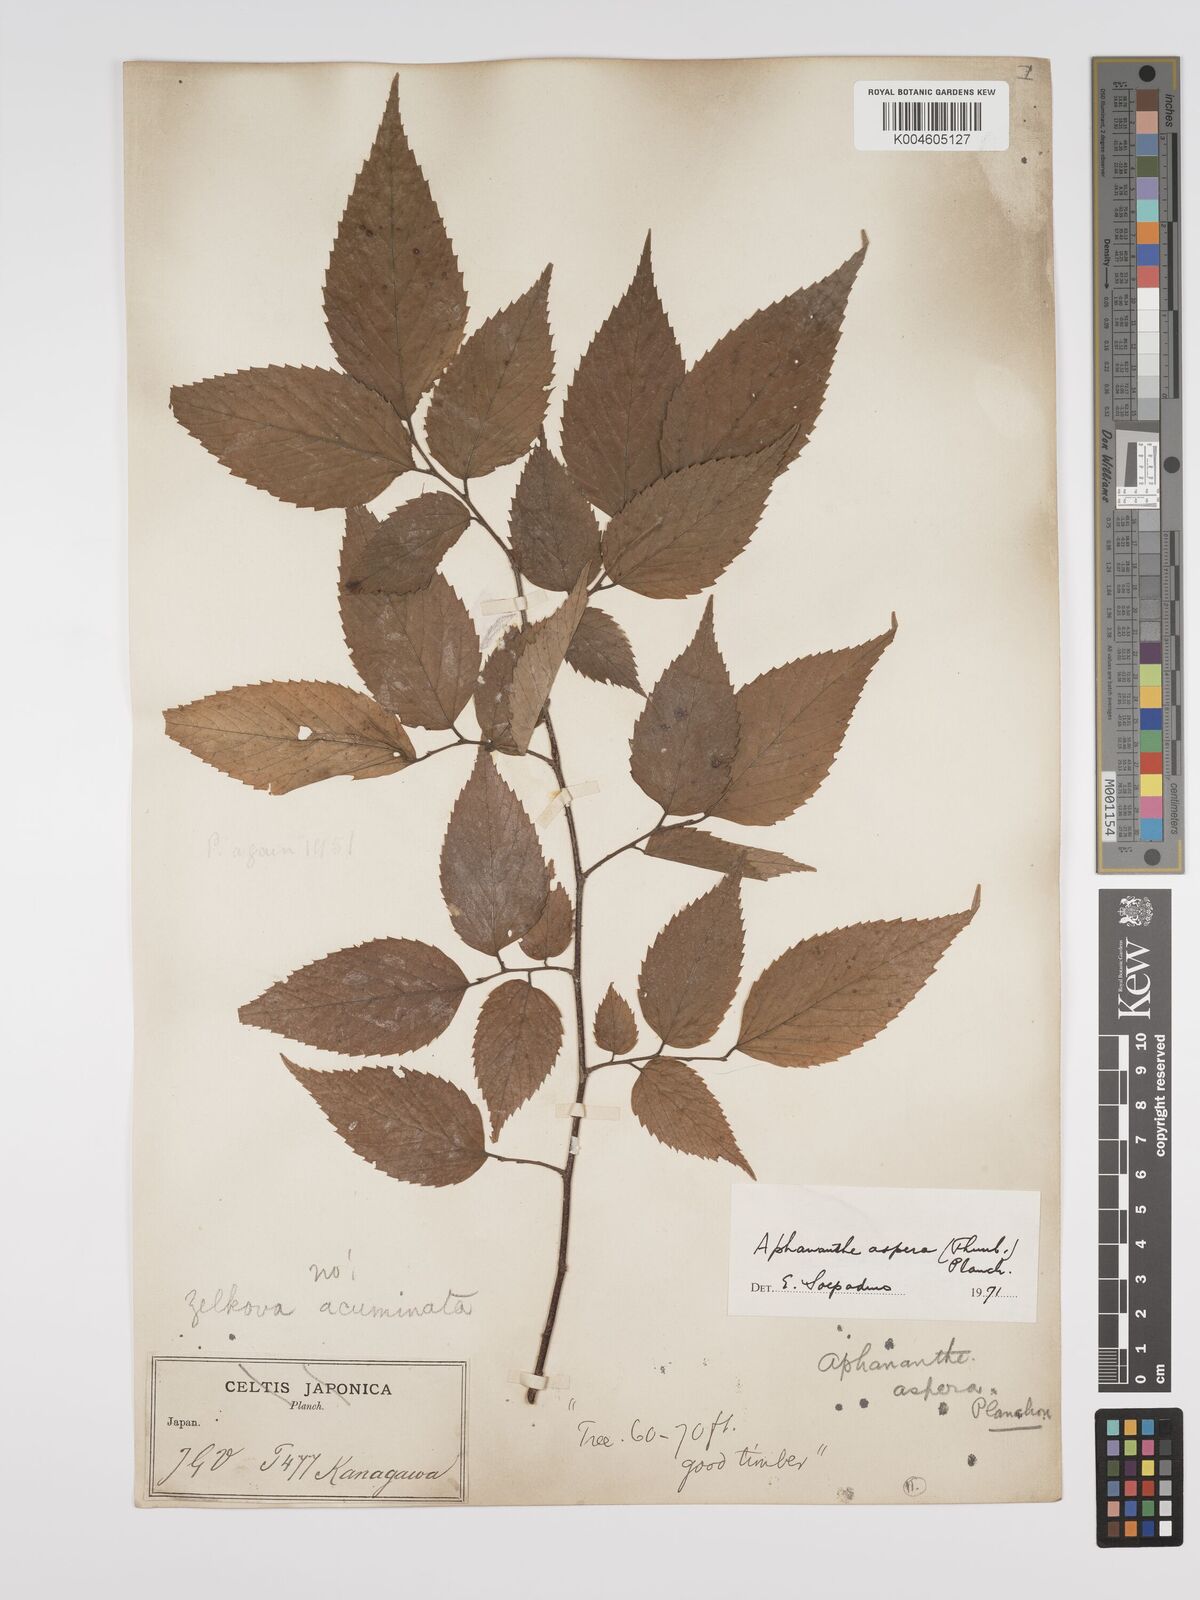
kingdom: Plantae
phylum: Tracheophyta
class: Magnoliopsida
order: Rosales
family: Cannabaceae
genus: Aphananthe
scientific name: Aphananthe aspera
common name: Mukutree
